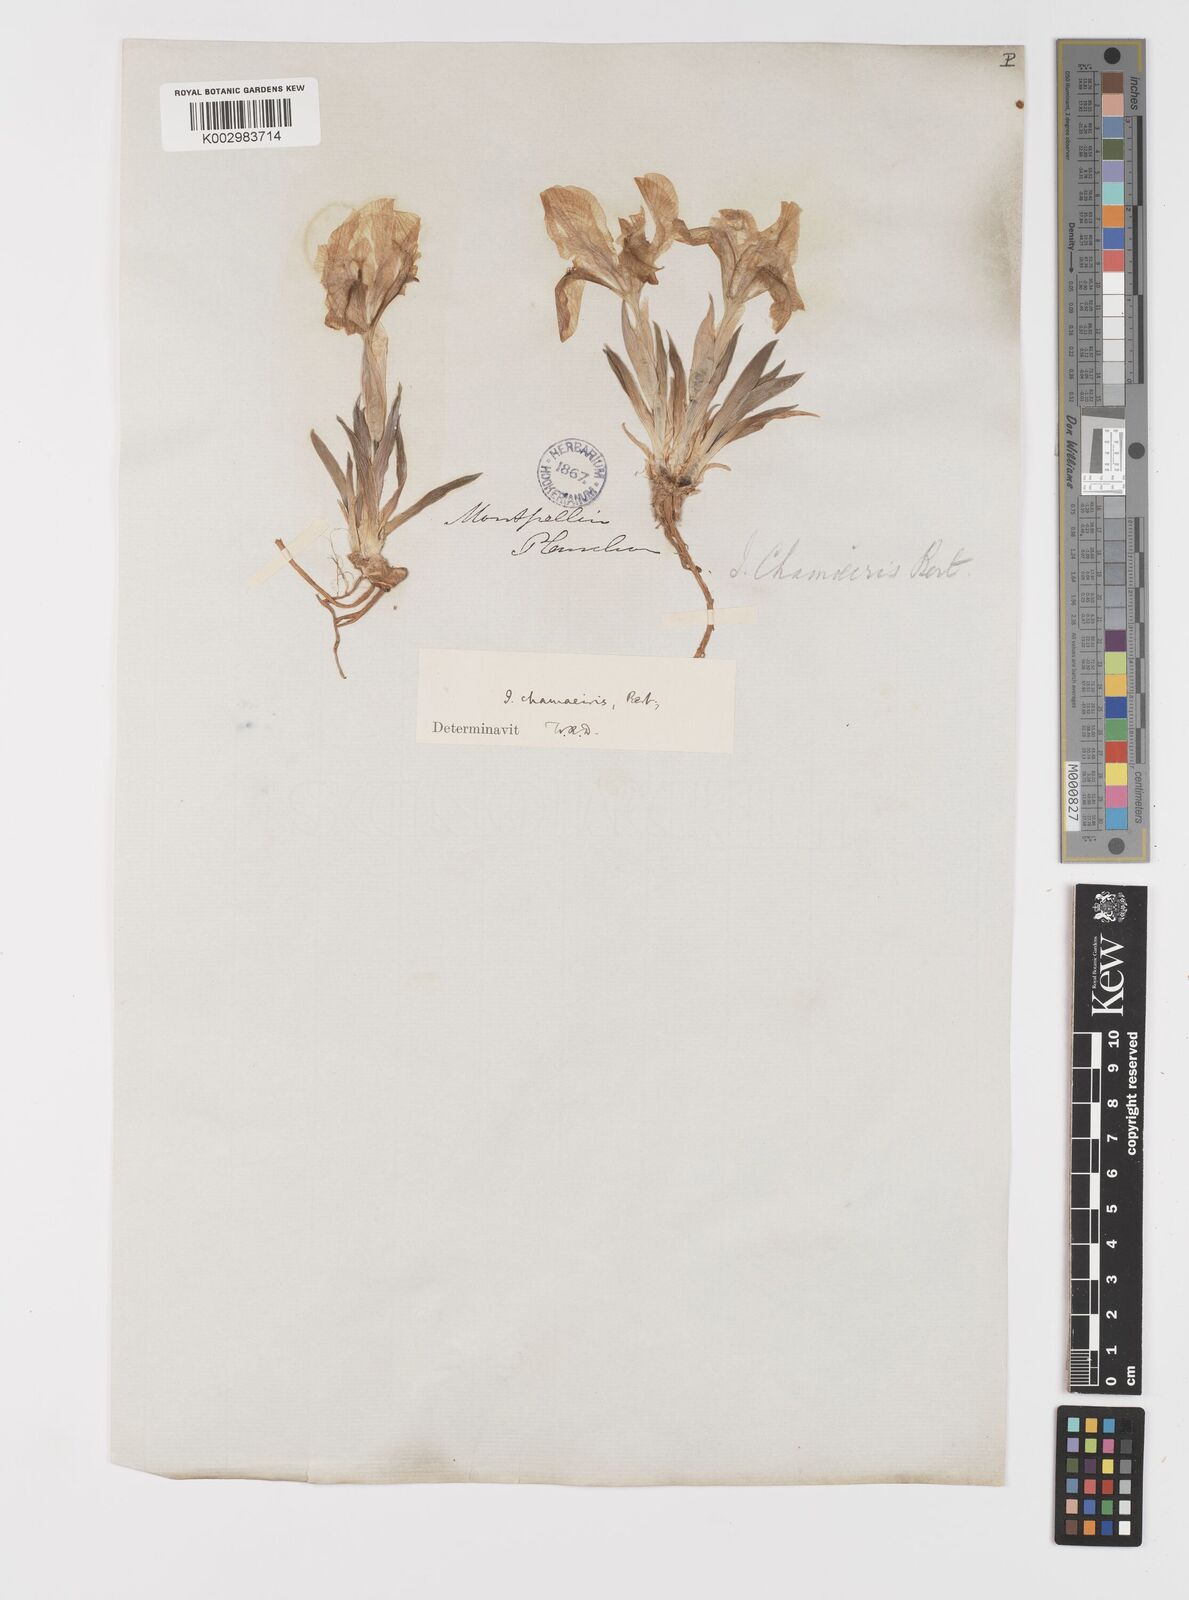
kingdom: Plantae
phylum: Tracheophyta
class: Liliopsida
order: Asparagales
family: Iridaceae
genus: Iris
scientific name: Iris lutescens
